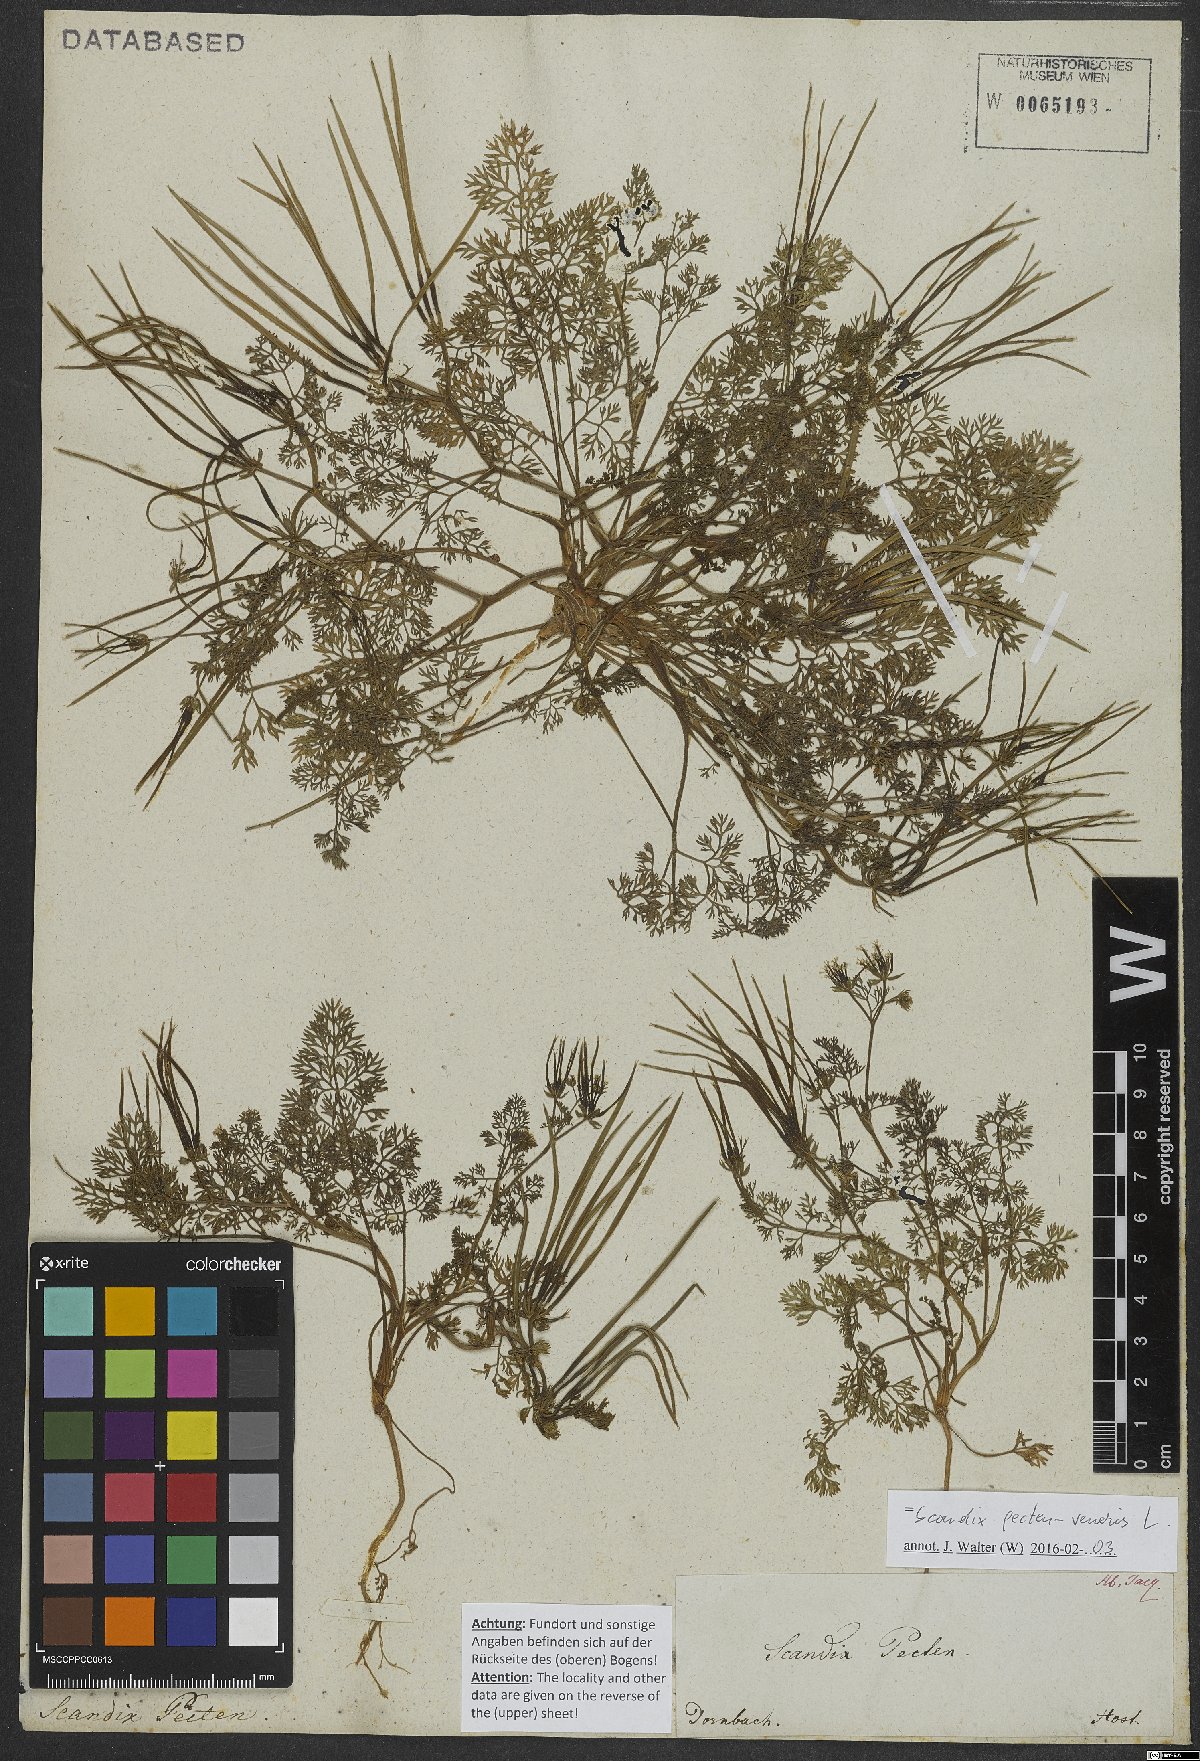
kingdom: Plantae
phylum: Tracheophyta
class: Magnoliopsida
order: Apiales
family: Apiaceae
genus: Scandix
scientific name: Scandix pecten-veneris
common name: Shepherd's-needle
